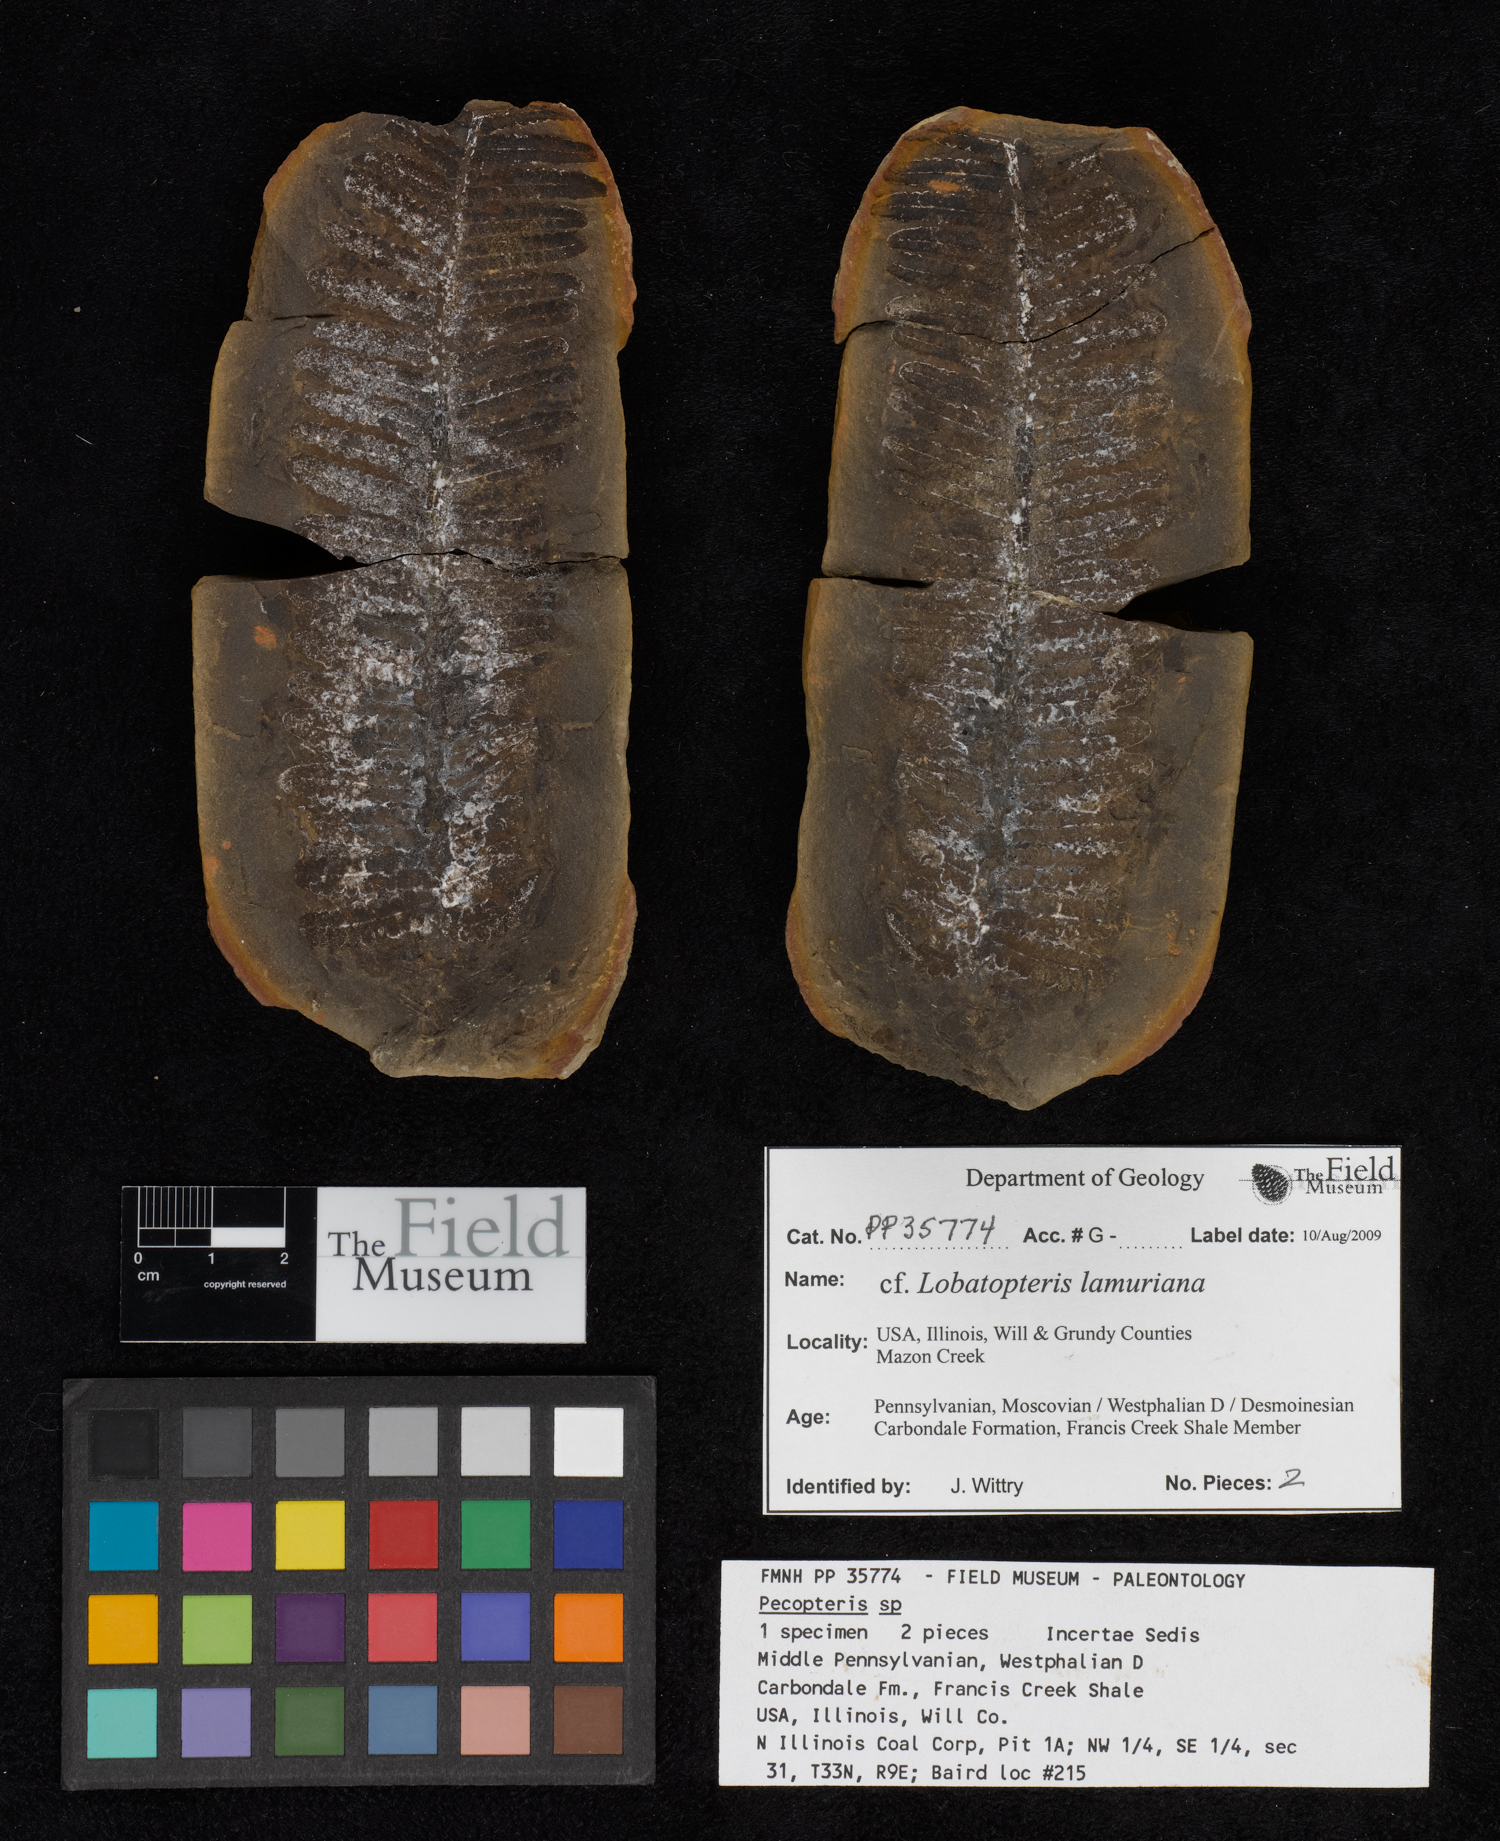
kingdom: Plantae
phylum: Tracheophyta
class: Polypodiopsida
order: Marattiales
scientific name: Marattiales
